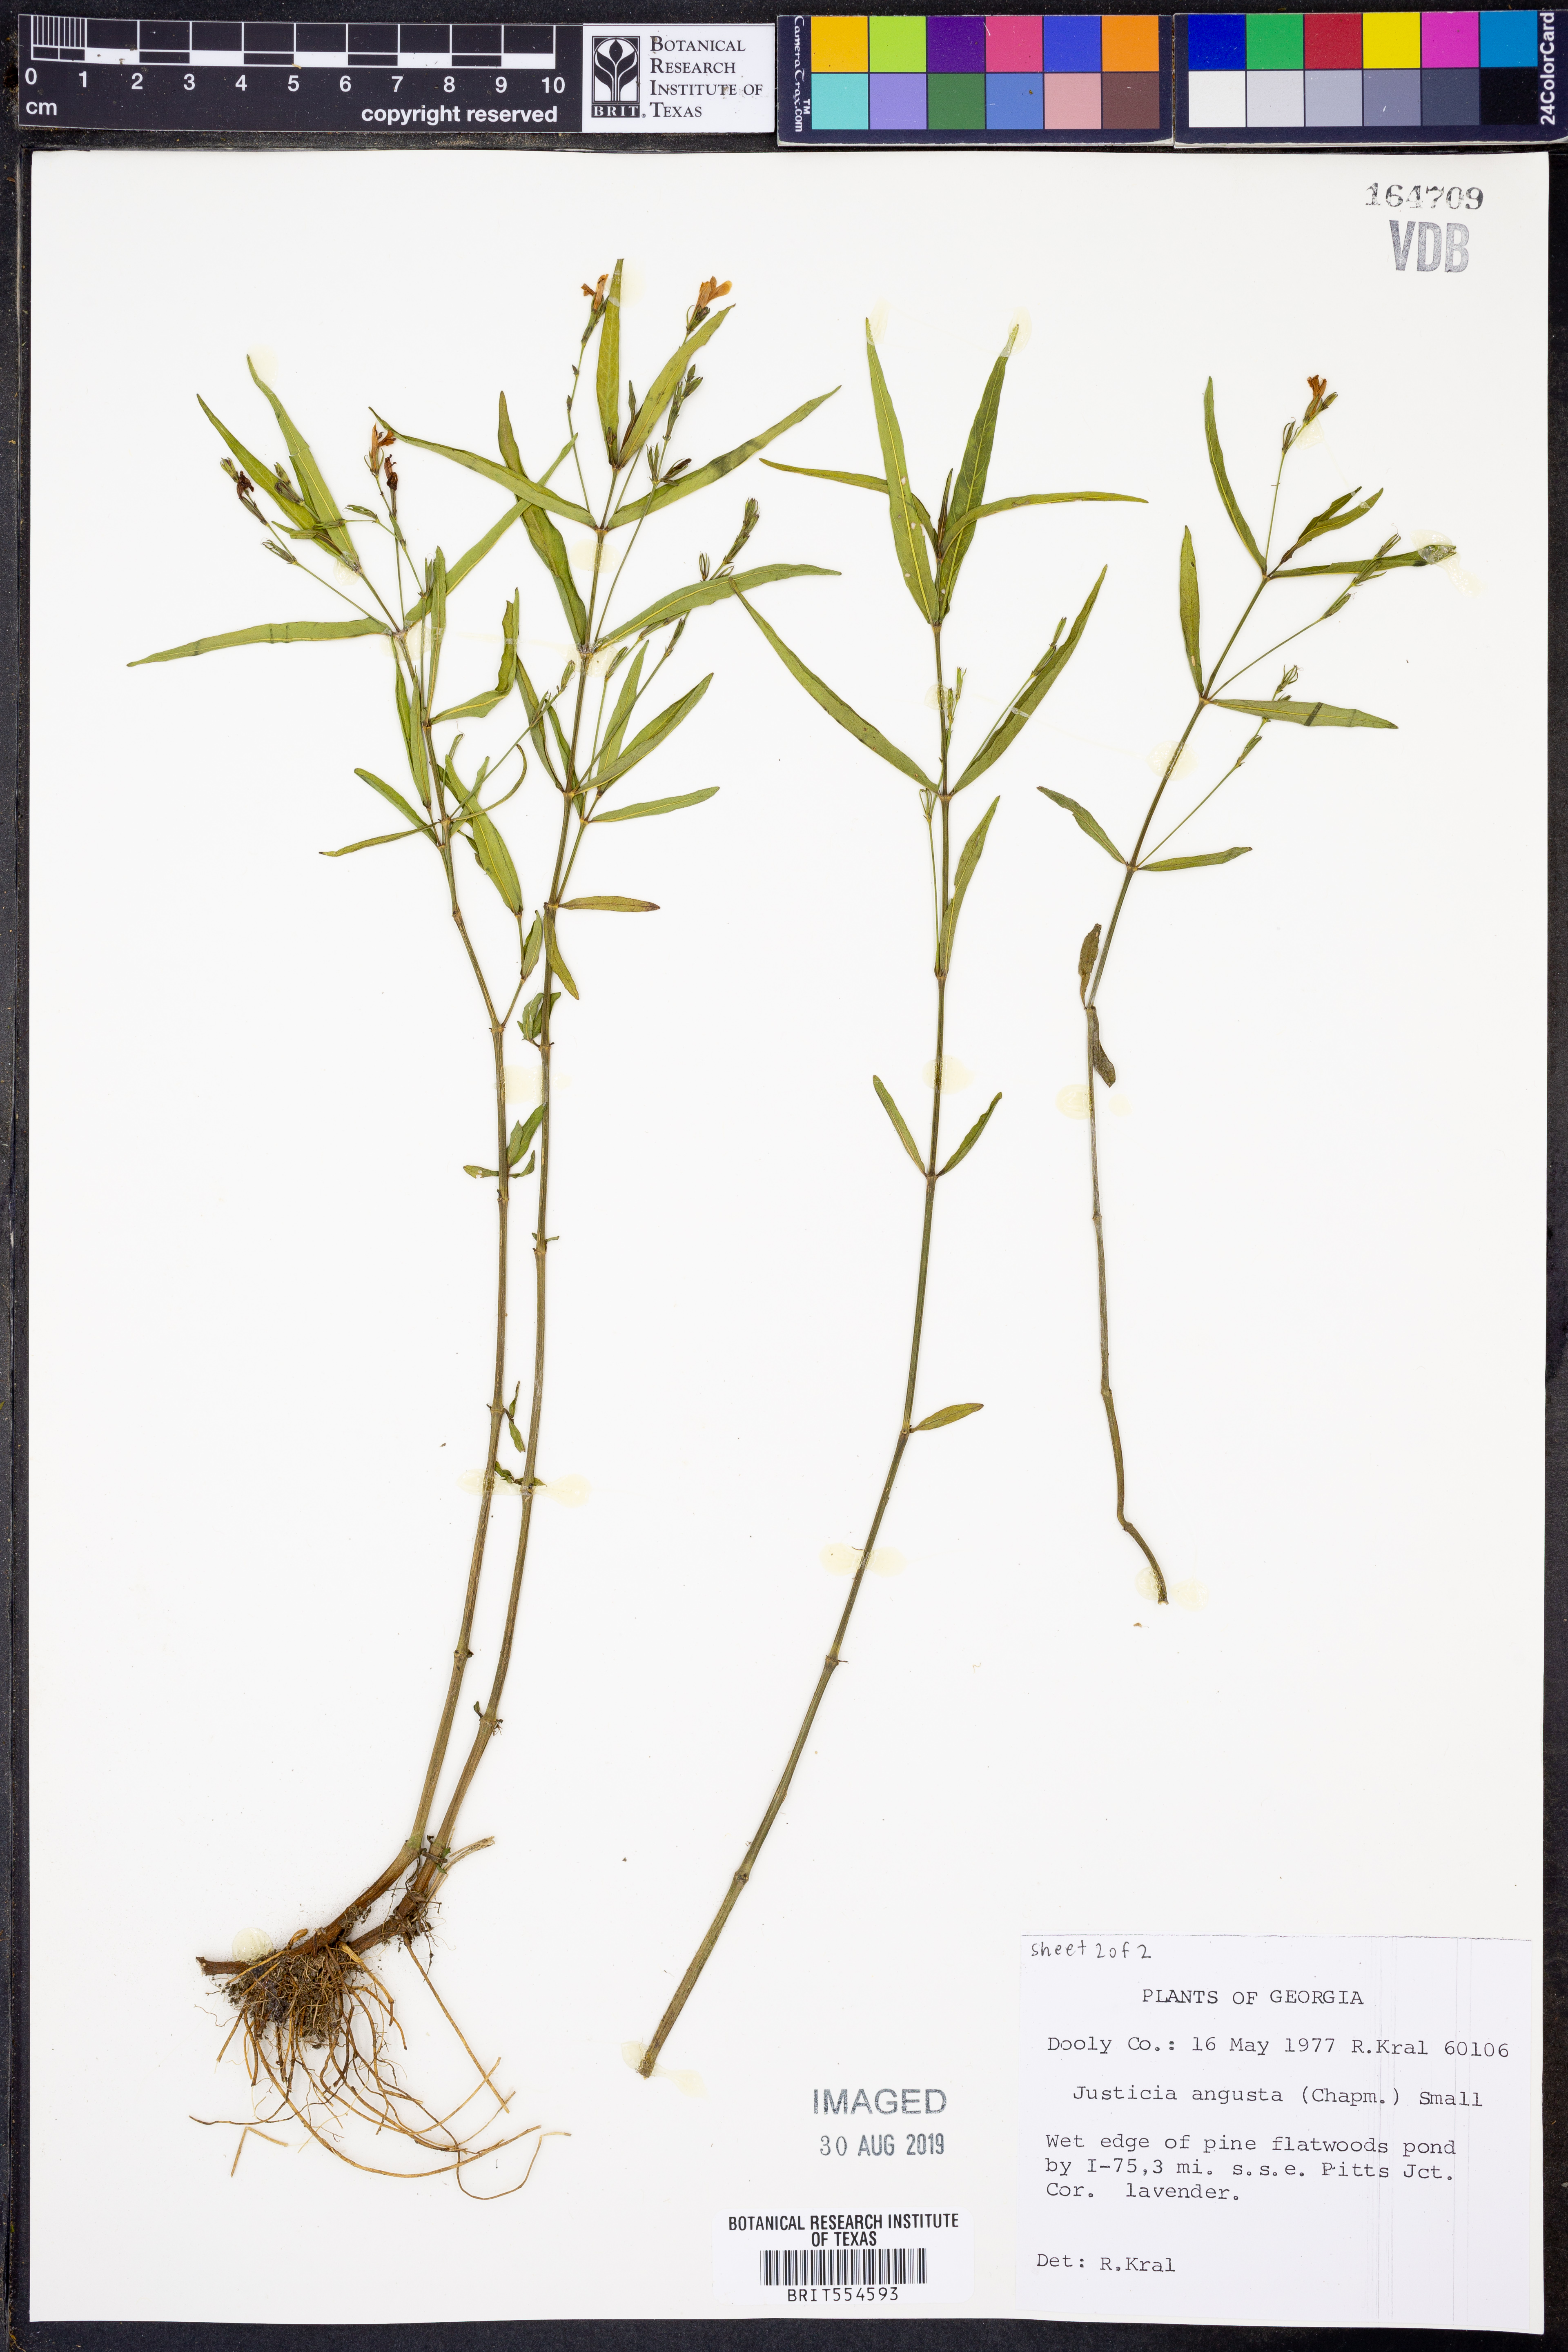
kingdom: Plantae
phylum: Tracheophyta
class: Magnoliopsida
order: Lamiales
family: Acanthaceae
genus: Dianthera
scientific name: Dianthera angusta
